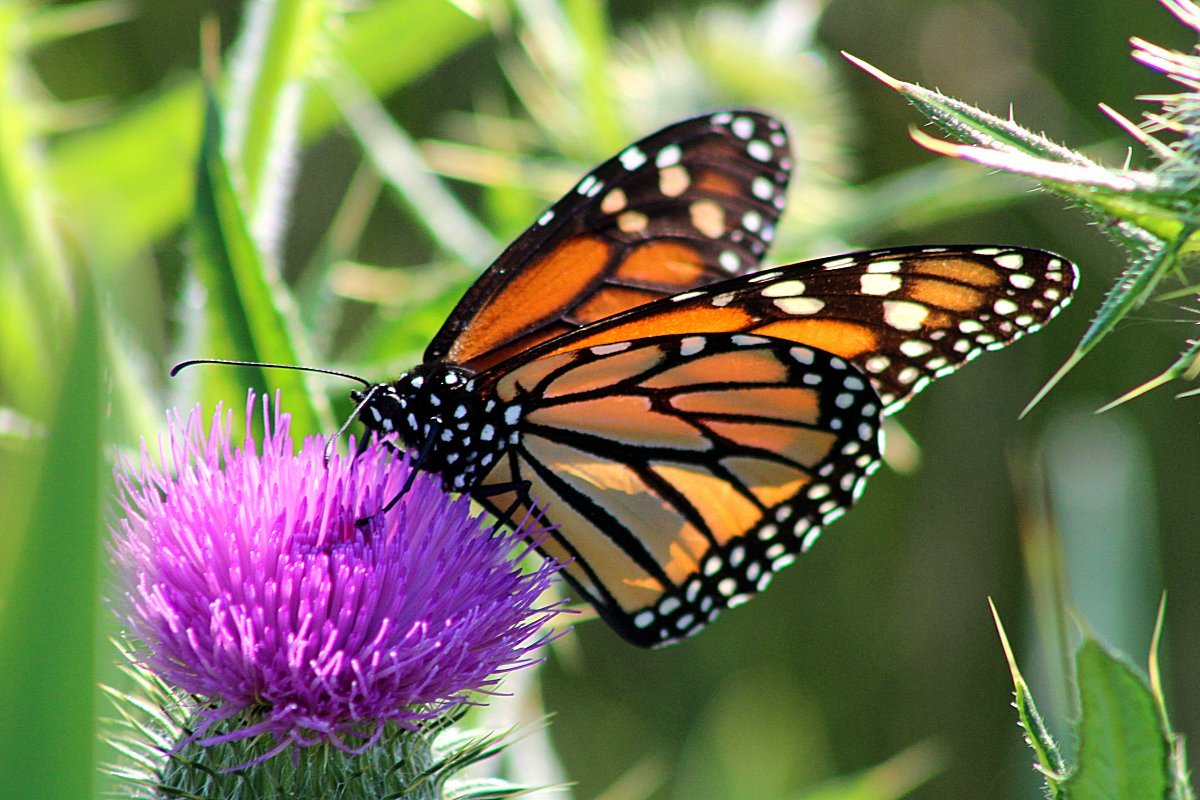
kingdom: Animalia
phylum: Arthropoda
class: Insecta
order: Lepidoptera
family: Nymphalidae
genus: Danaus
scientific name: Danaus plexippus
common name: Monarch
